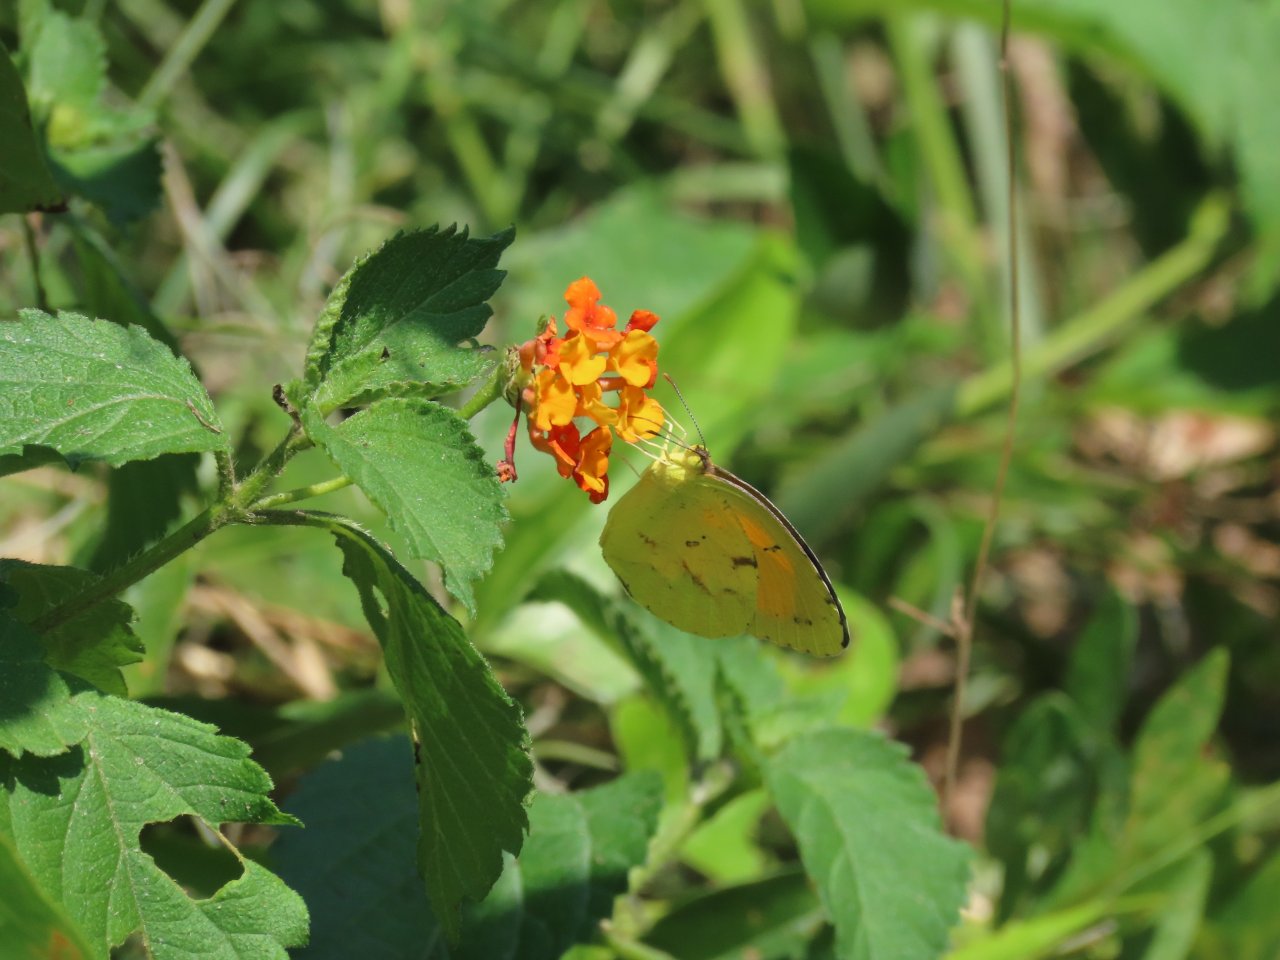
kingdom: Animalia
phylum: Arthropoda
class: Insecta
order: Lepidoptera
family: Pieridae
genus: Abaeis
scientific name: Abaeis nicippe
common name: Sleepy Orange
